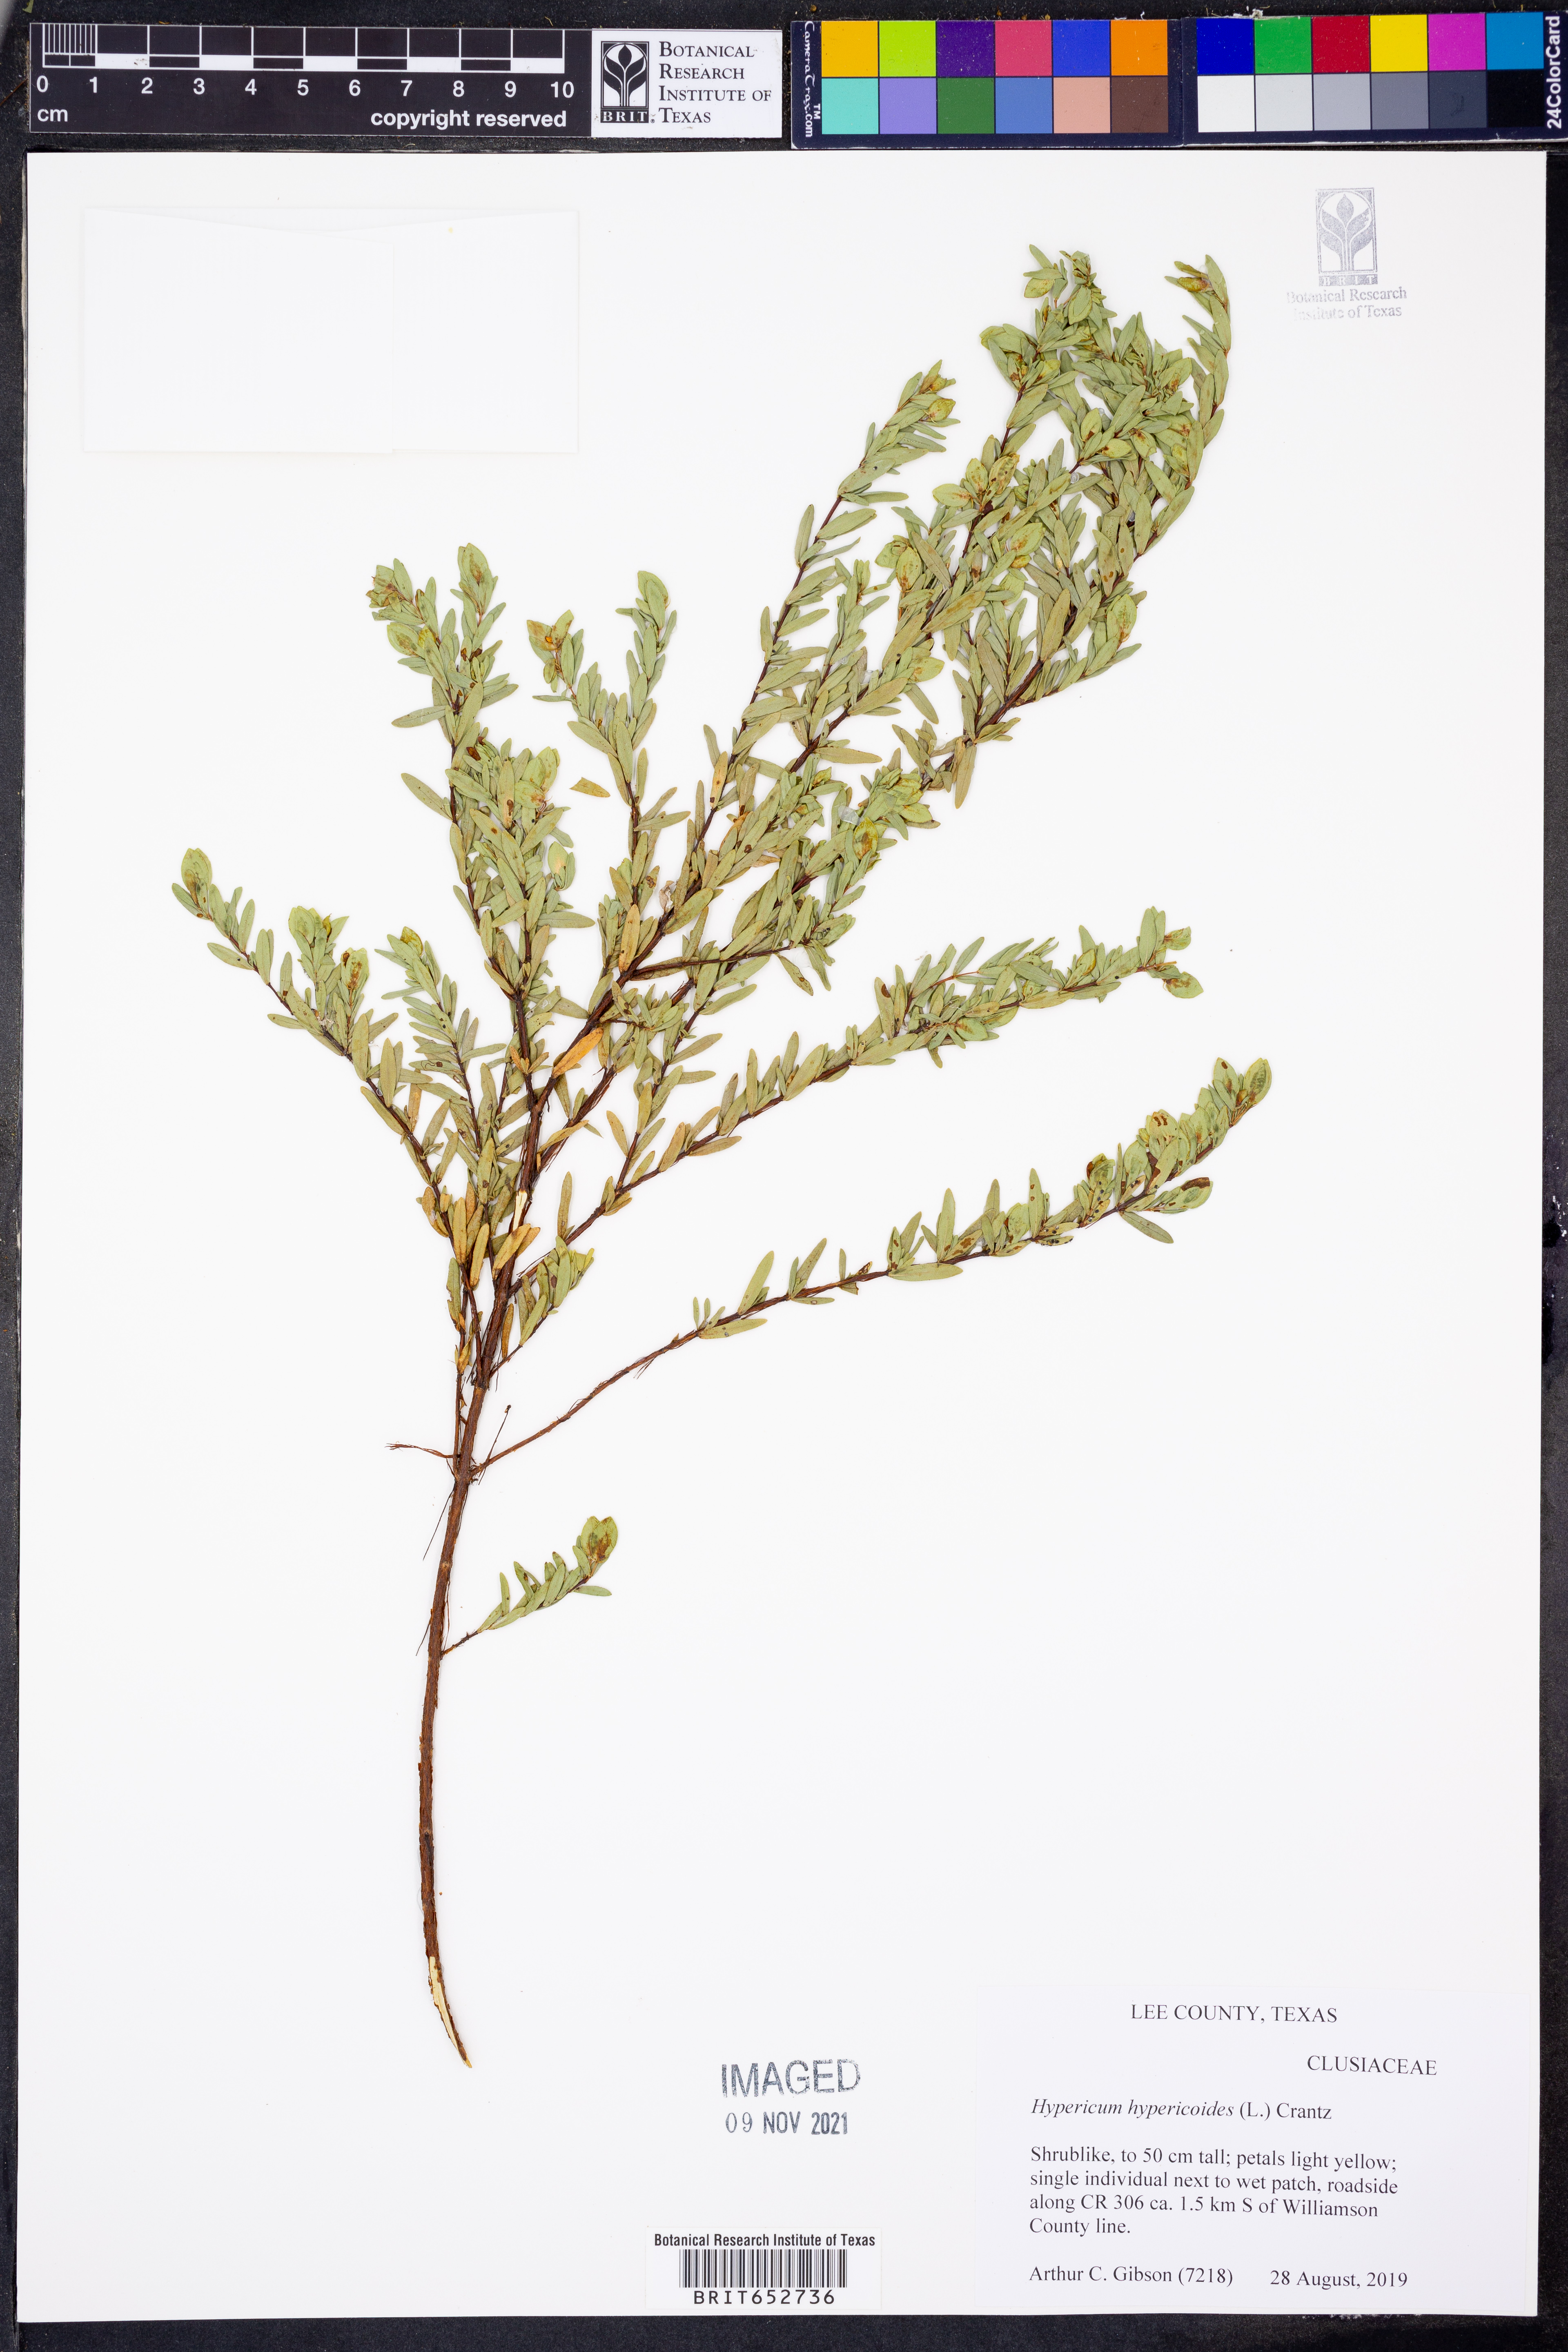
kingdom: Plantae
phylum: Tracheophyta
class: Magnoliopsida
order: Malpighiales
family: Hypericaceae
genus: Hypericum
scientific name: Hypericum hypericoides
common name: St. andrew's cross
